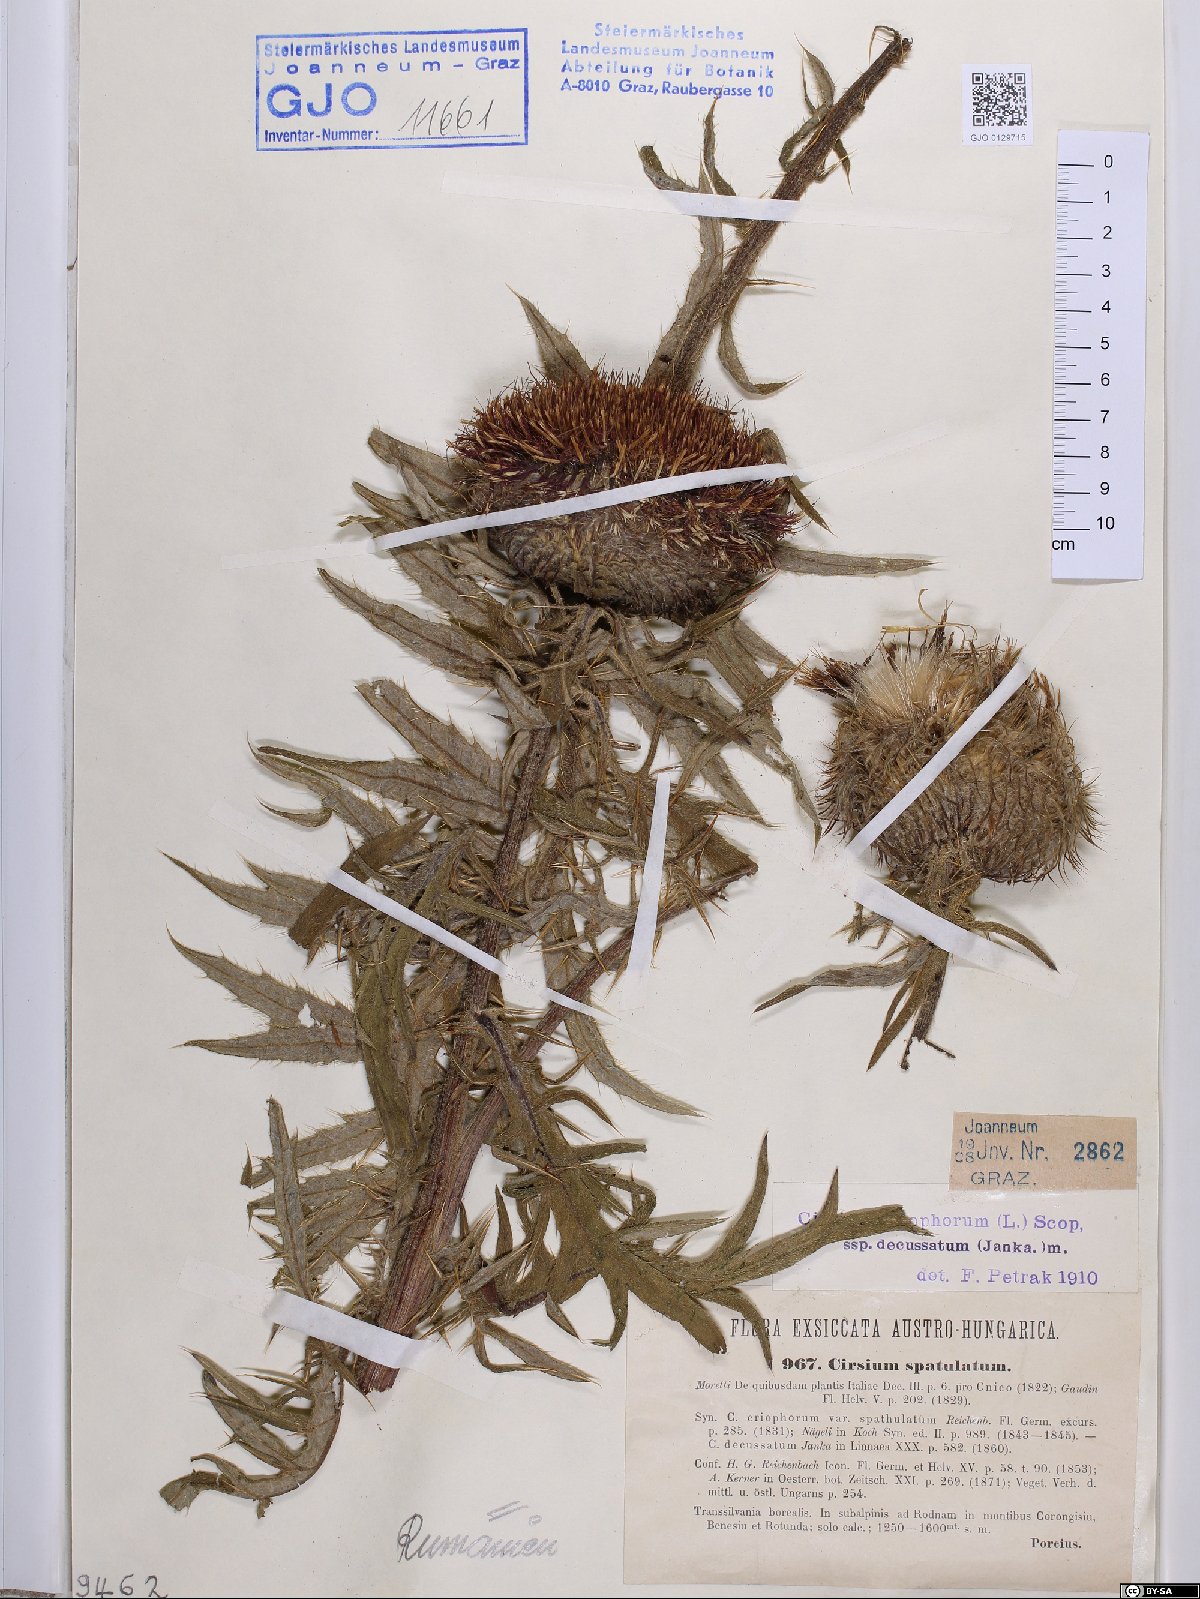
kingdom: Plantae
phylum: Tracheophyta
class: Magnoliopsida
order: Asterales
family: Asteraceae
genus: Lophiolepis
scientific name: Lophiolepis decussata
